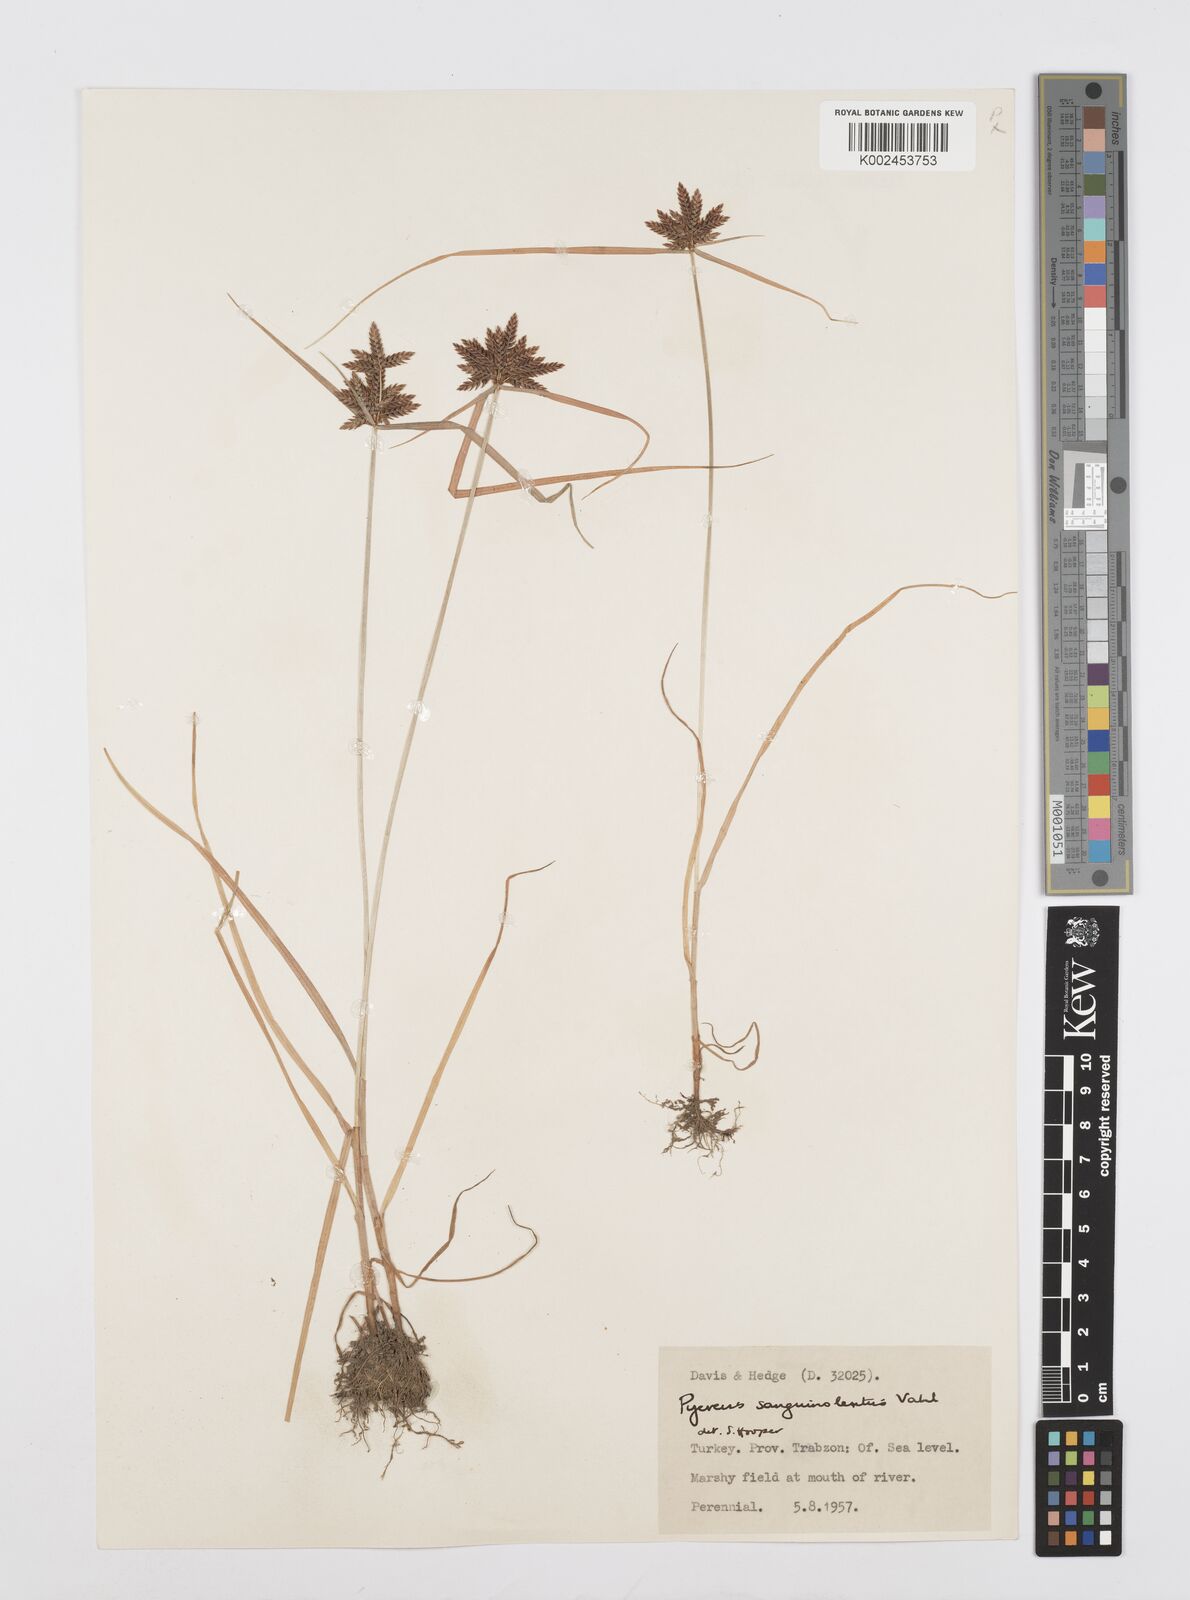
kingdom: Plantae
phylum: Tracheophyta
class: Liliopsida
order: Poales
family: Cyperaceae
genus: Cyperus
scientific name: Cyperus sanguinolentus
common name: Purpleglume flatsedge
